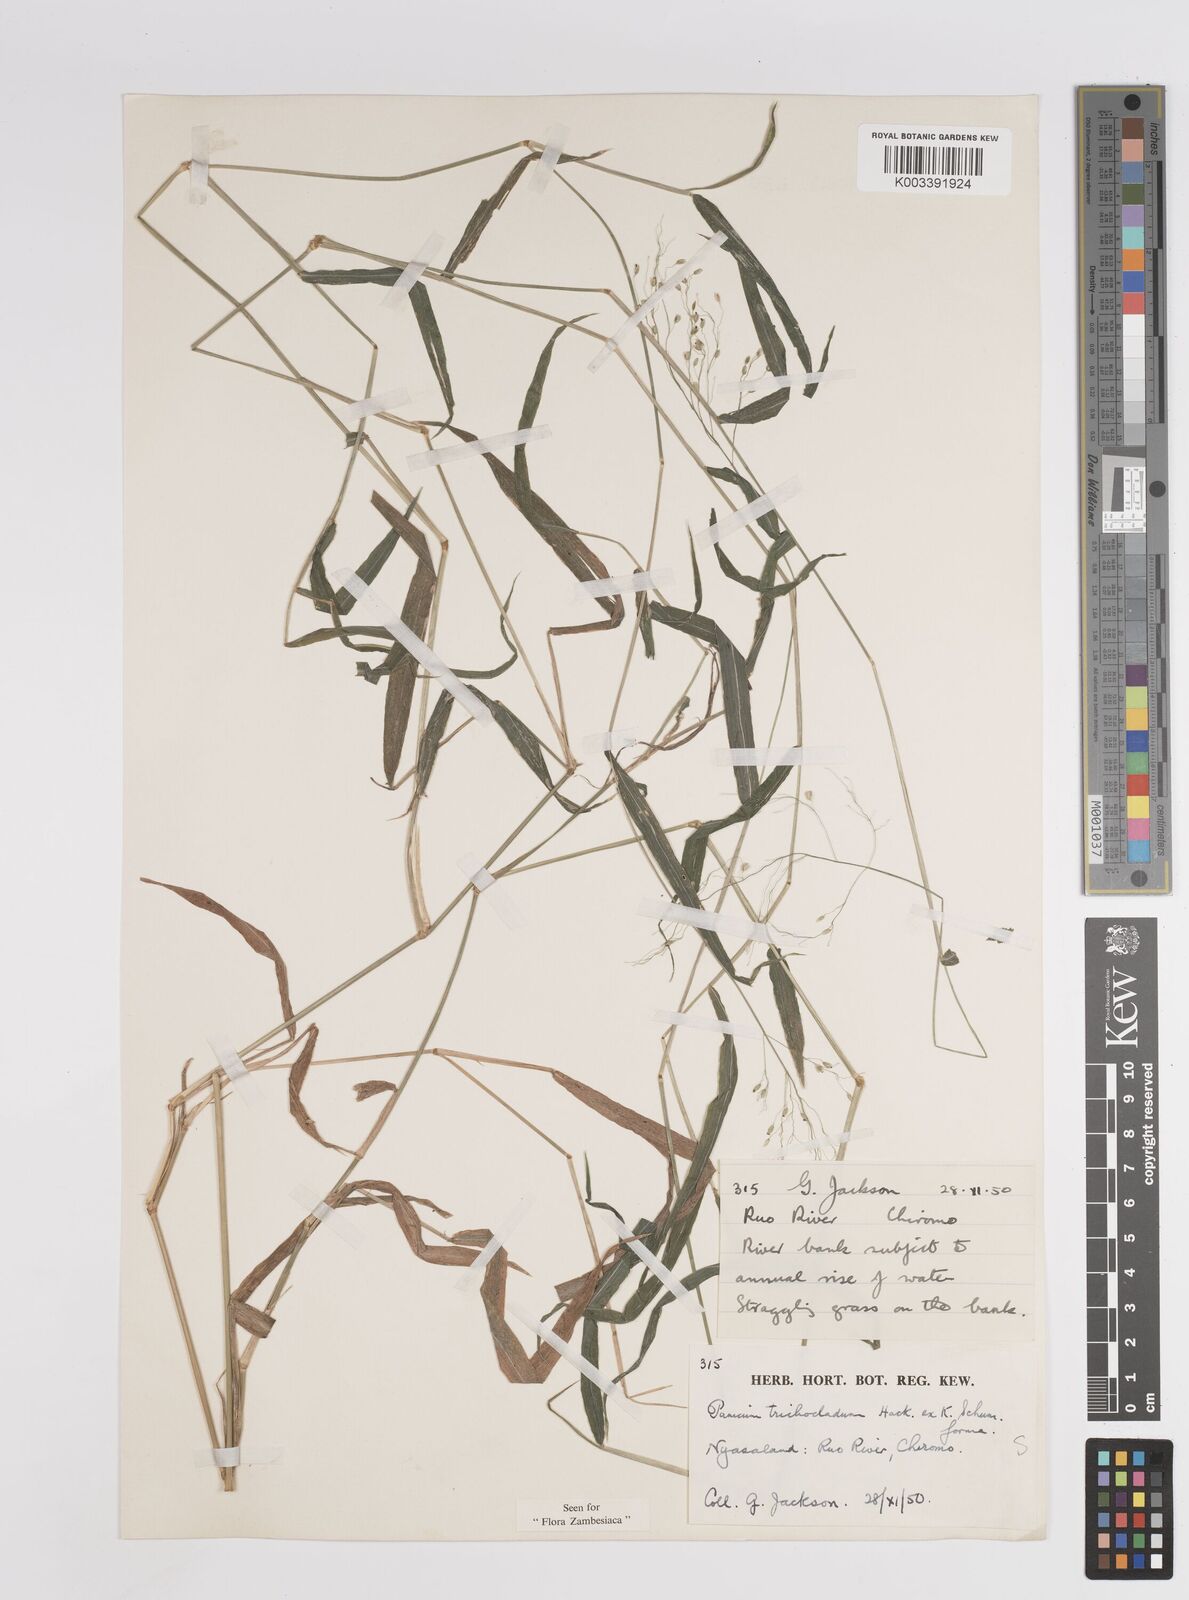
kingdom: Plantae
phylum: Tracheophyta
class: Liliopsida
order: Poales
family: Poaceae
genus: Panicum
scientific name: Panicum trichocladum
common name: Donkey grass
